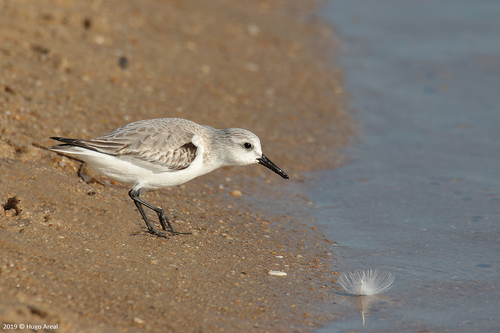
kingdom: Animalia
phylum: Chordata
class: Aves
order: Charadriiformes
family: Scolopacidae
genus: Calidris
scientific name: Calidris alba
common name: Sanderling
